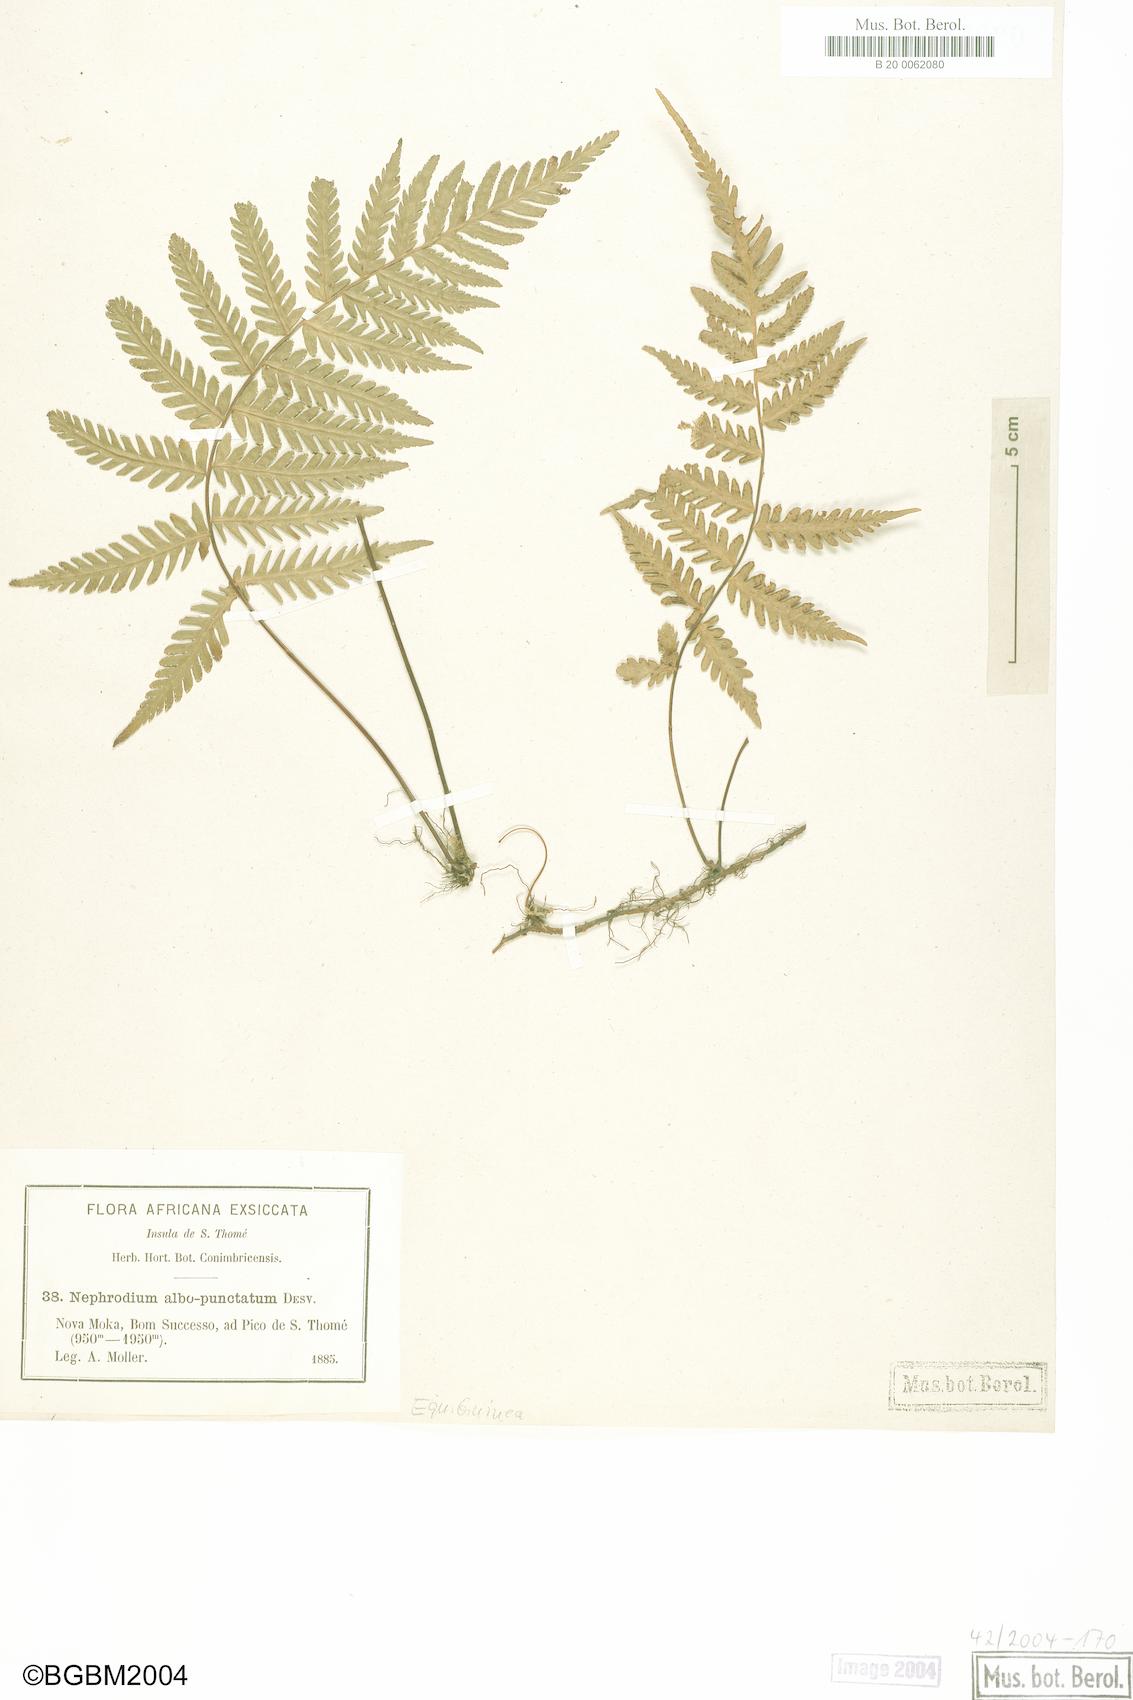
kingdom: Plantae
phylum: Tracheophyta
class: Polypodiopsida
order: Polypodiales
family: Tectariaceae
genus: Arthropteris
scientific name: Arthropteris orientalis
